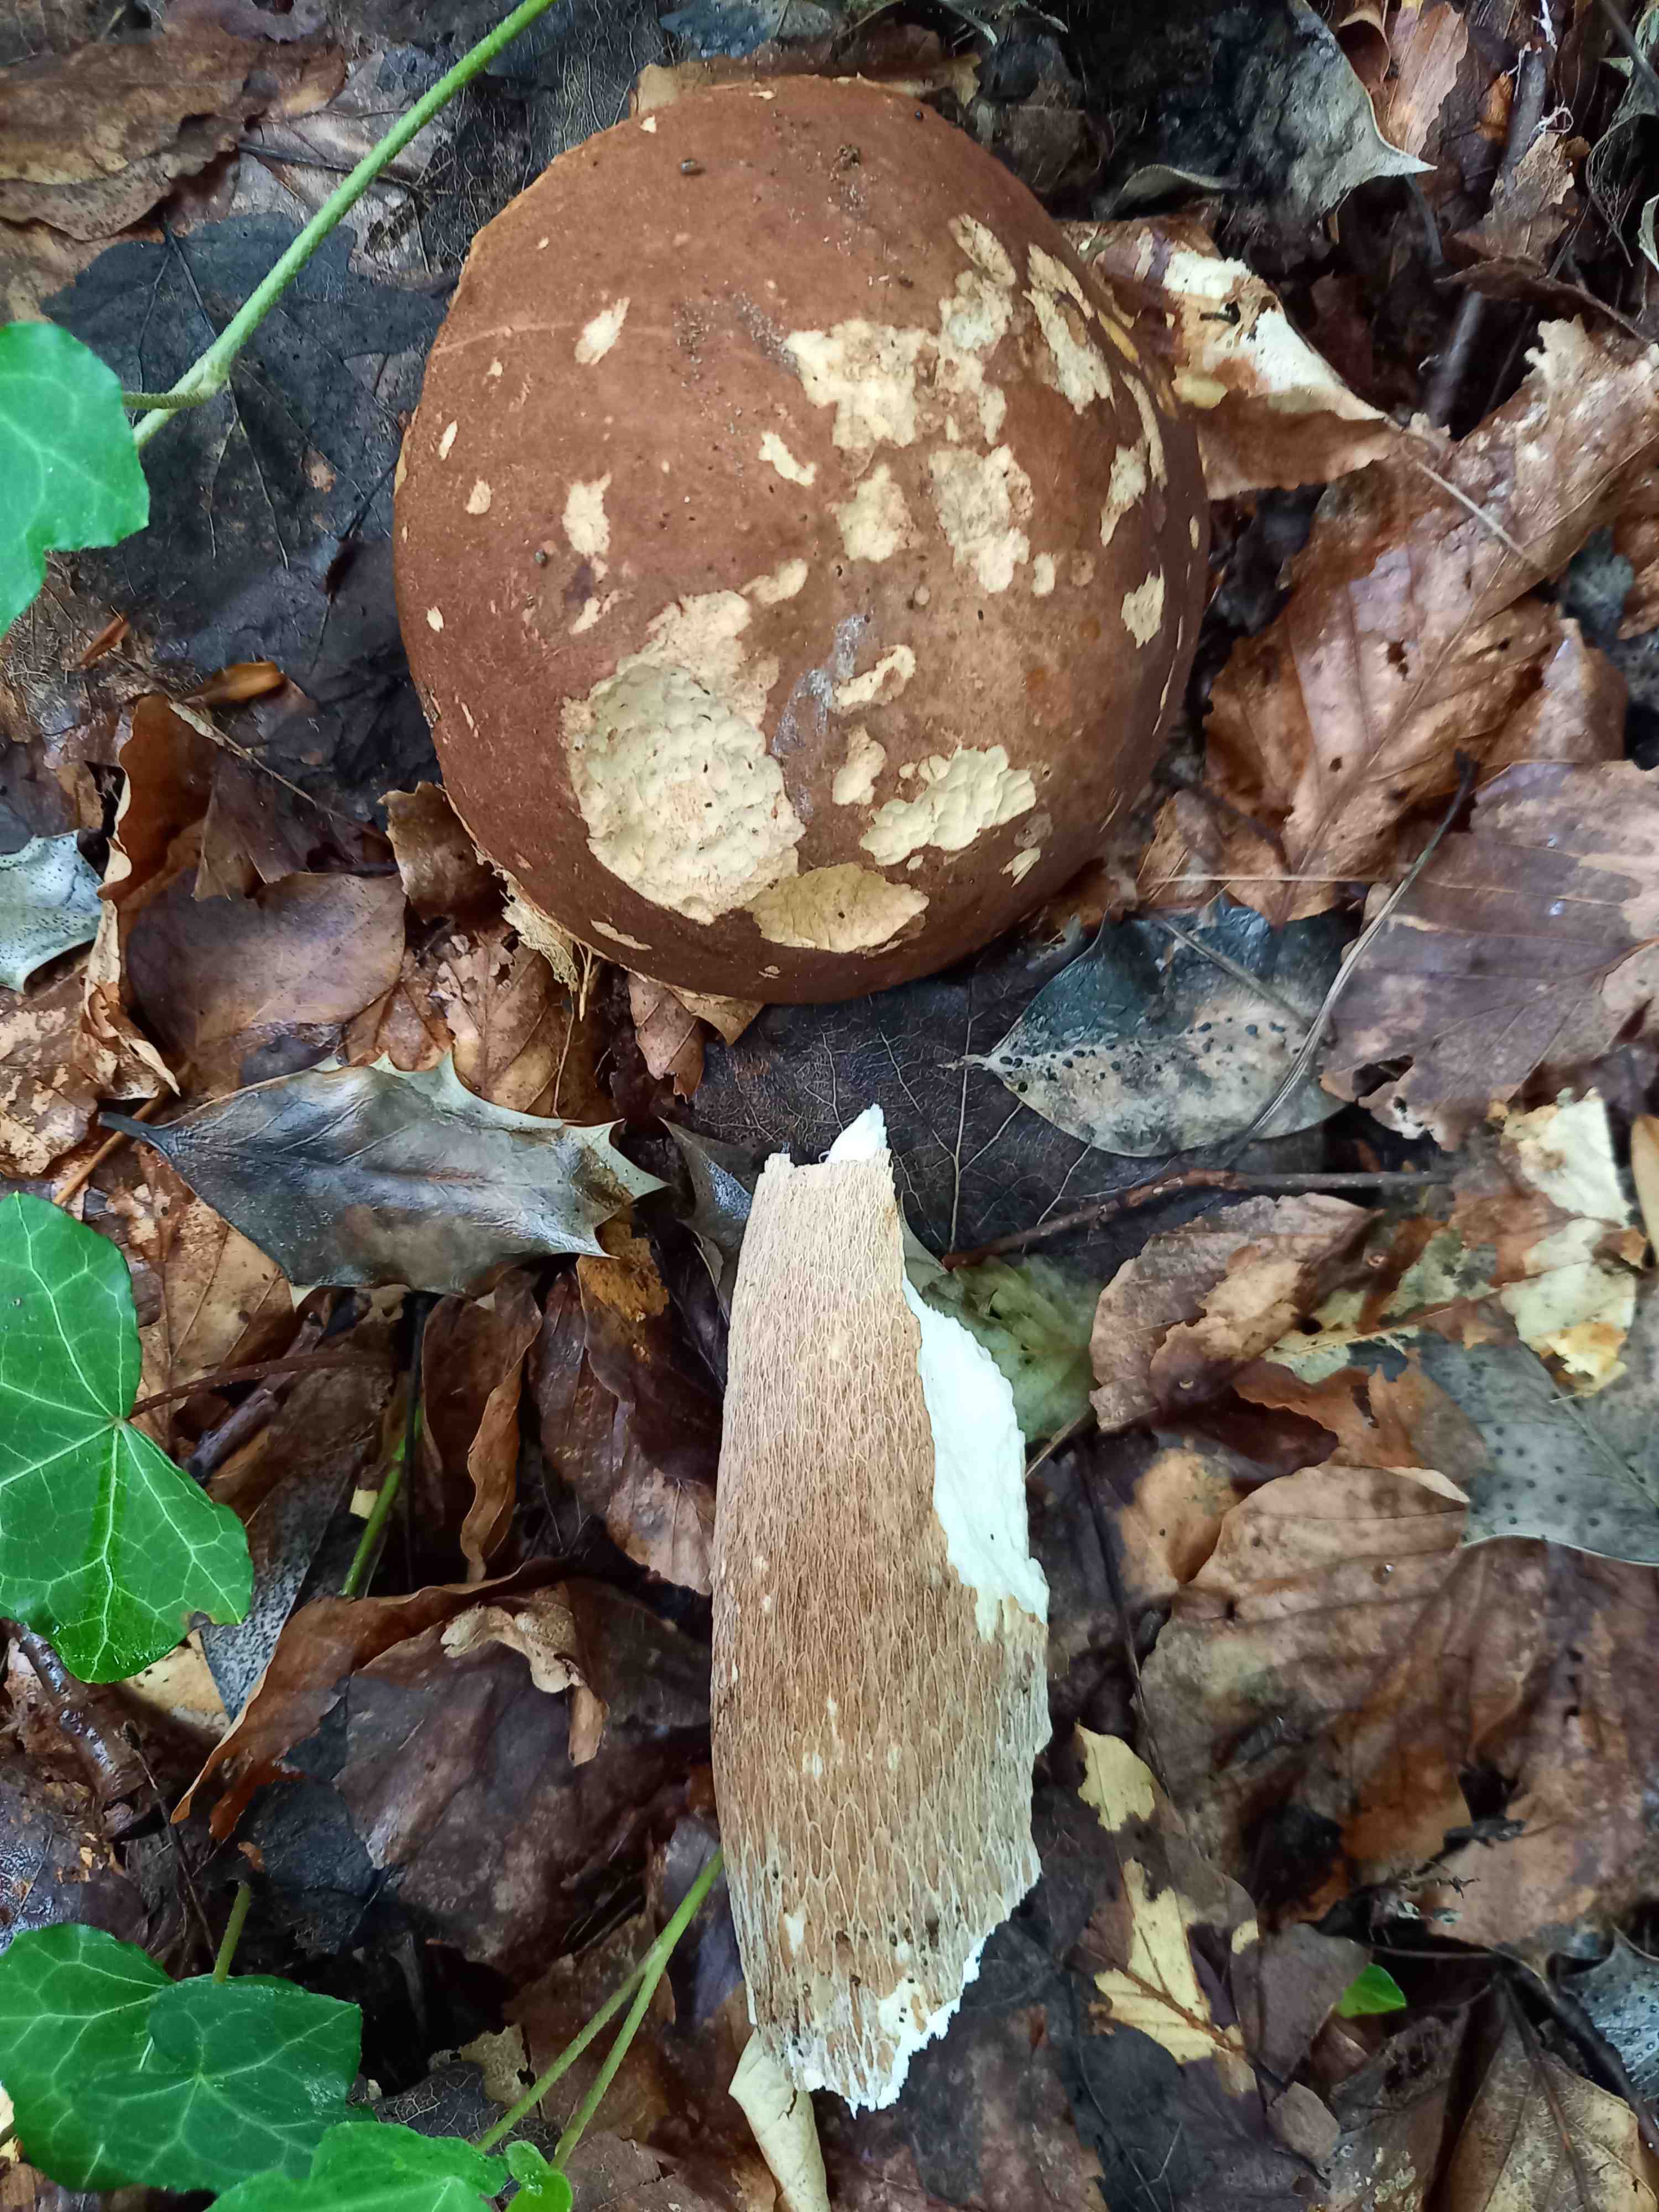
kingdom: Fungi
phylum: Basidiomycota
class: Agaricomycetes
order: Boletales
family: Boletaceae
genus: Boletus
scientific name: Boletus reticulatus
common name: sommer-rørhat
